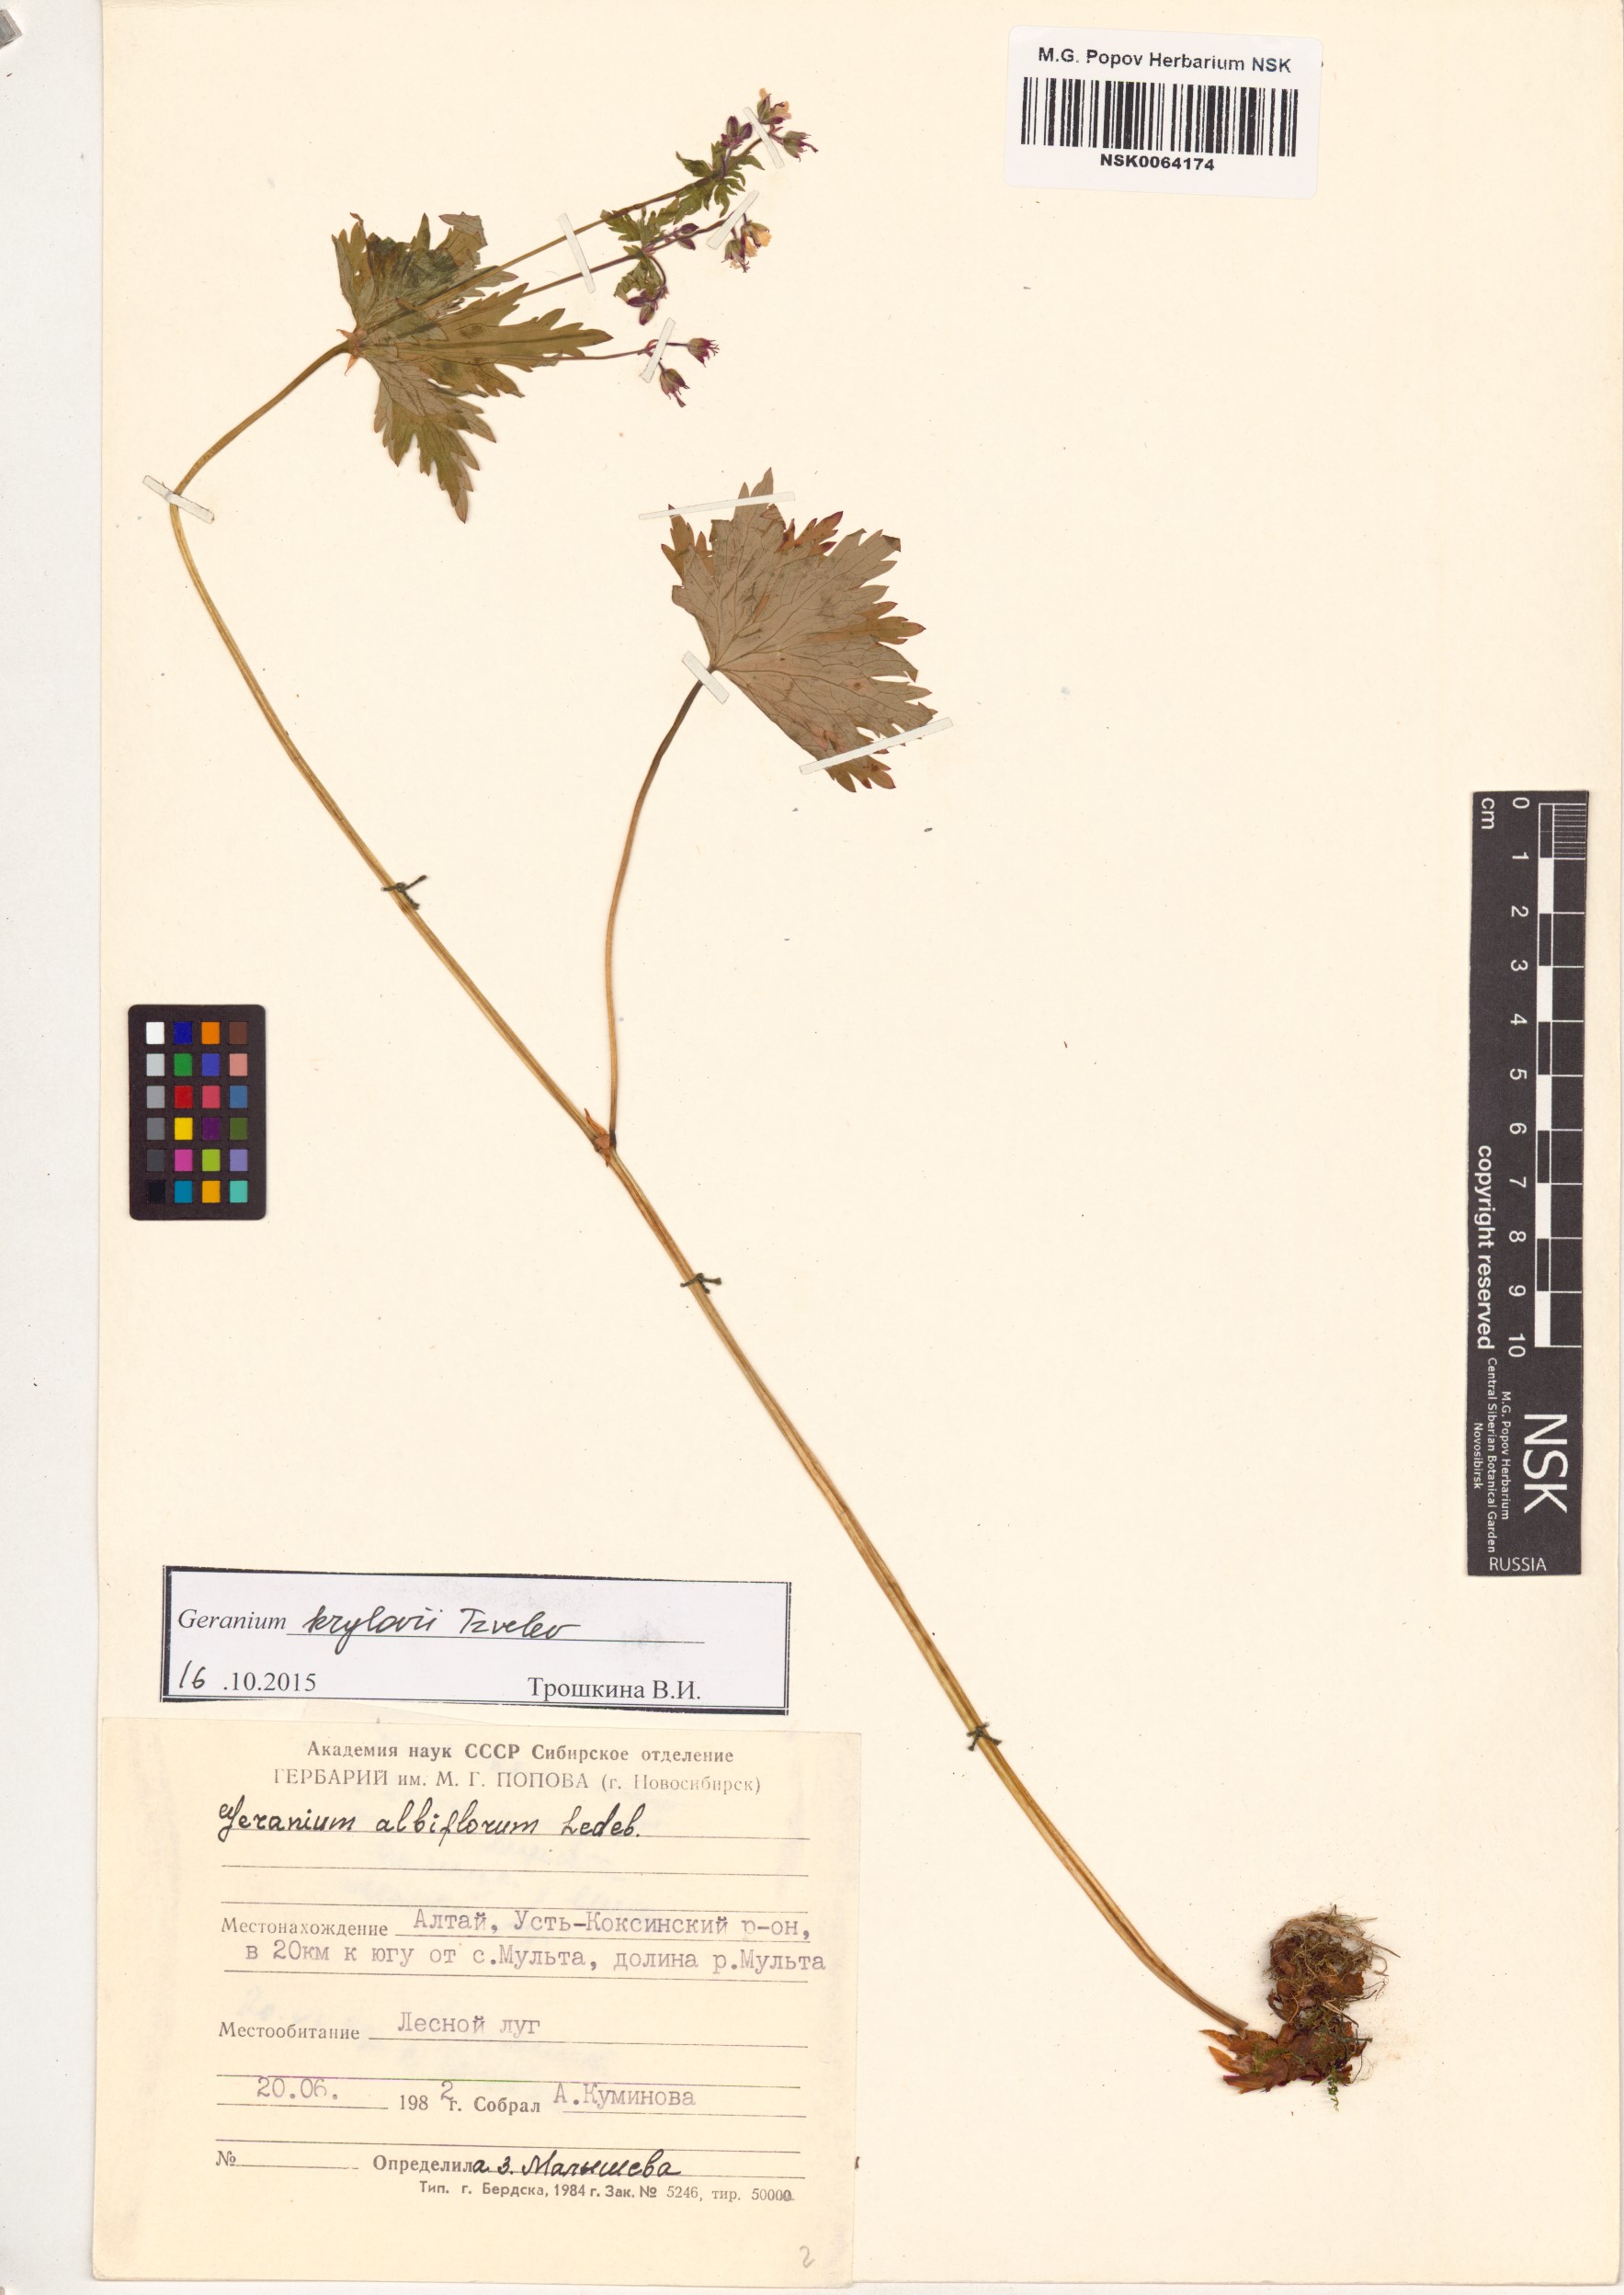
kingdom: Plantae
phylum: Tracheophyta
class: Magnoliopsida
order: Geraniales
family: Geraniaceae
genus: Geranium
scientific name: Geranium sylvaticum
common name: Wood crane's-bill
